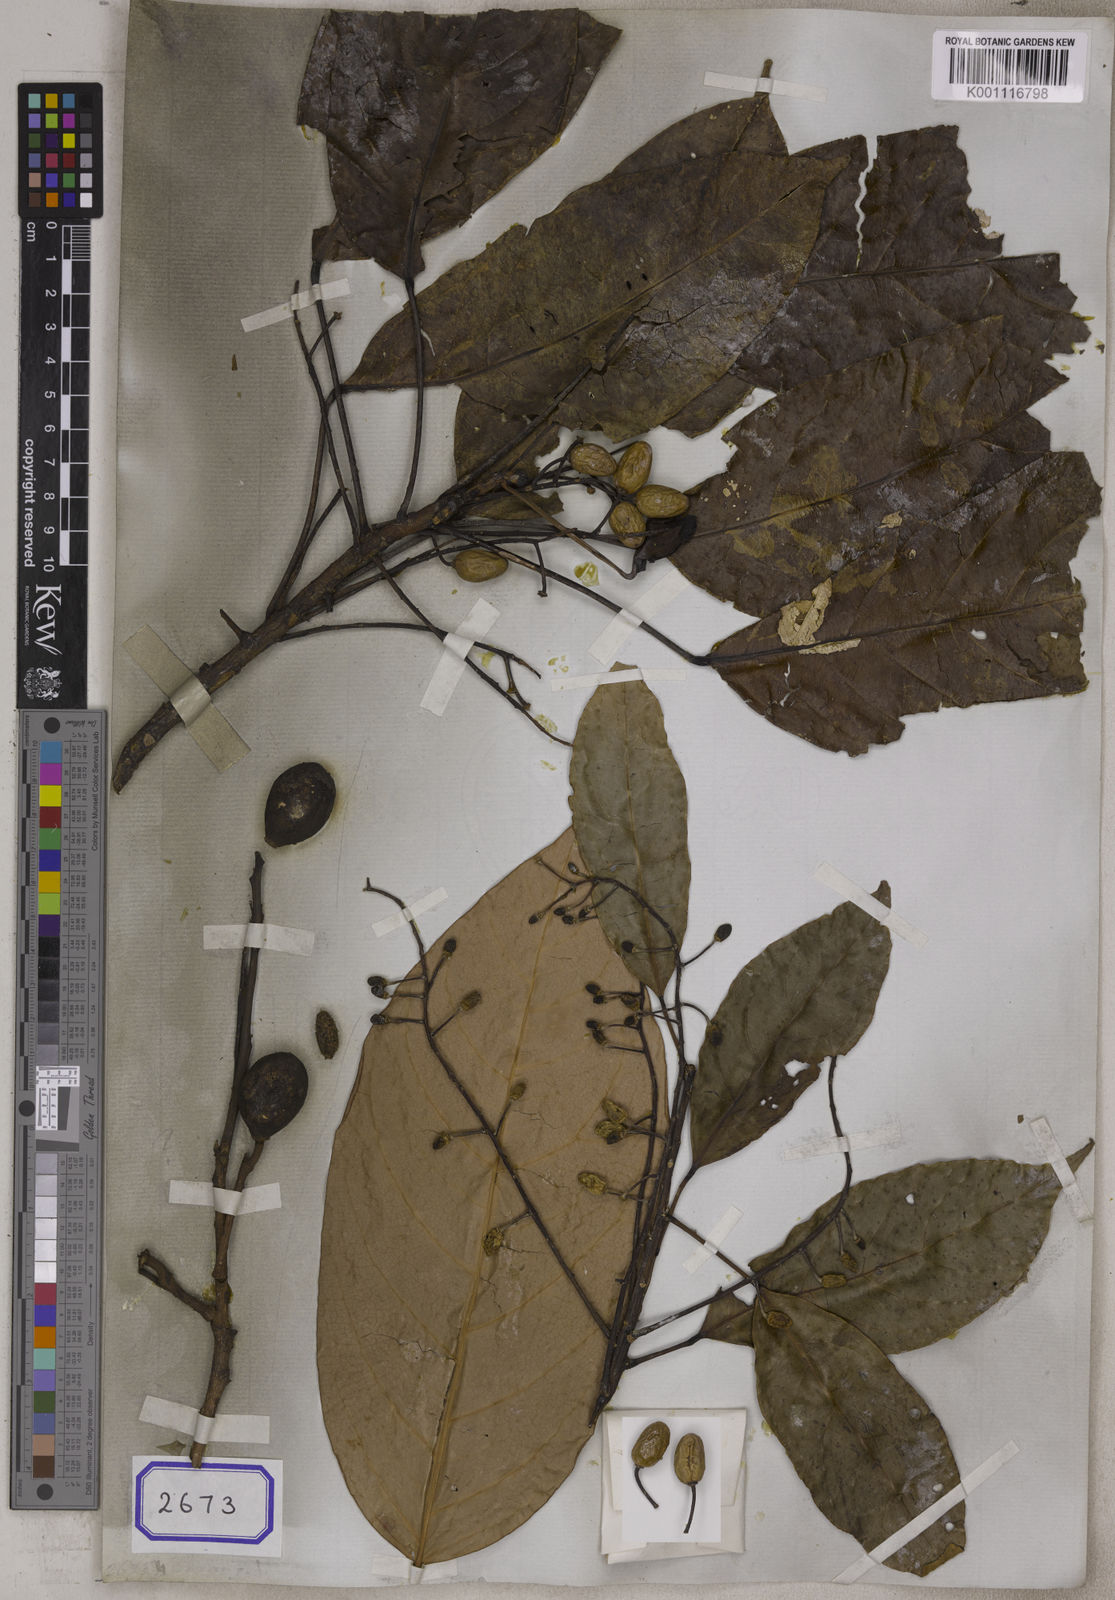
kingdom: Plantae
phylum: Tracheophyta
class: Magnoliopsida
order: Oxalidales
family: Elaeocarpaceae
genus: Elaeocarpus
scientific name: Elaeocarpus petiolatus
